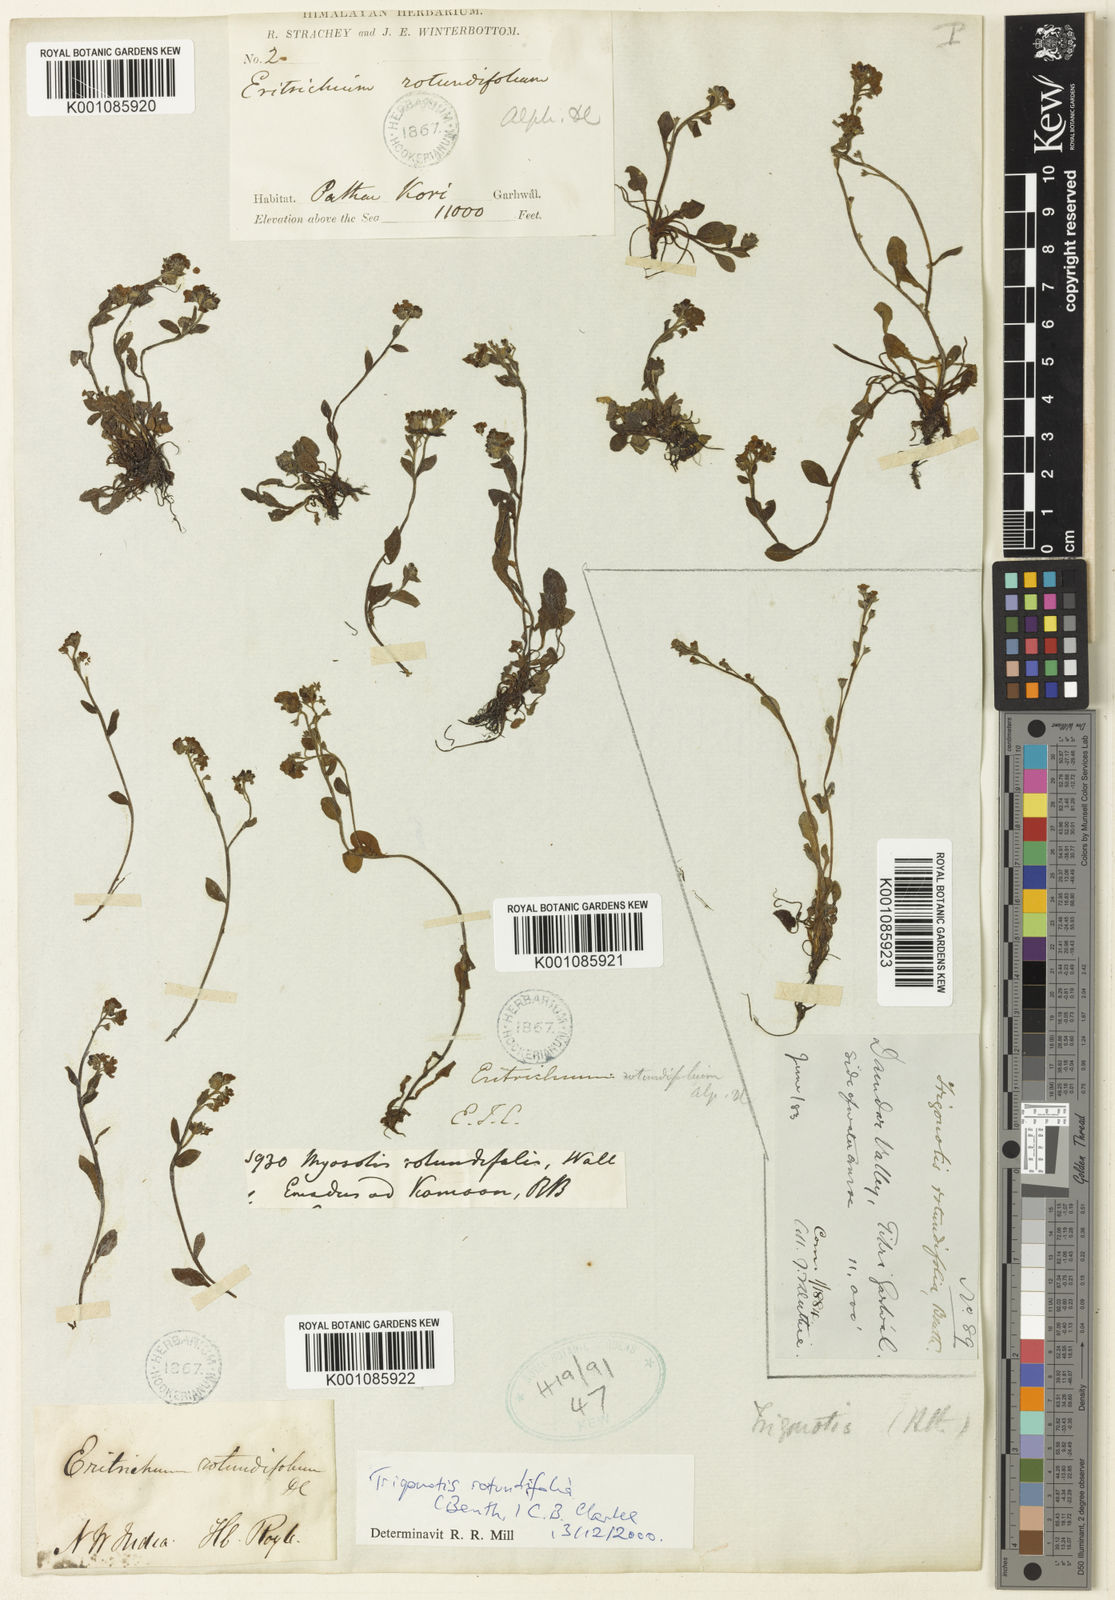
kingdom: Plantae
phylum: Tracheophyta
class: Magnoliopsida
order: Boraginales
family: Boraginaceae
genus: Trigonotis
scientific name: Trigonotis rotundifolia
